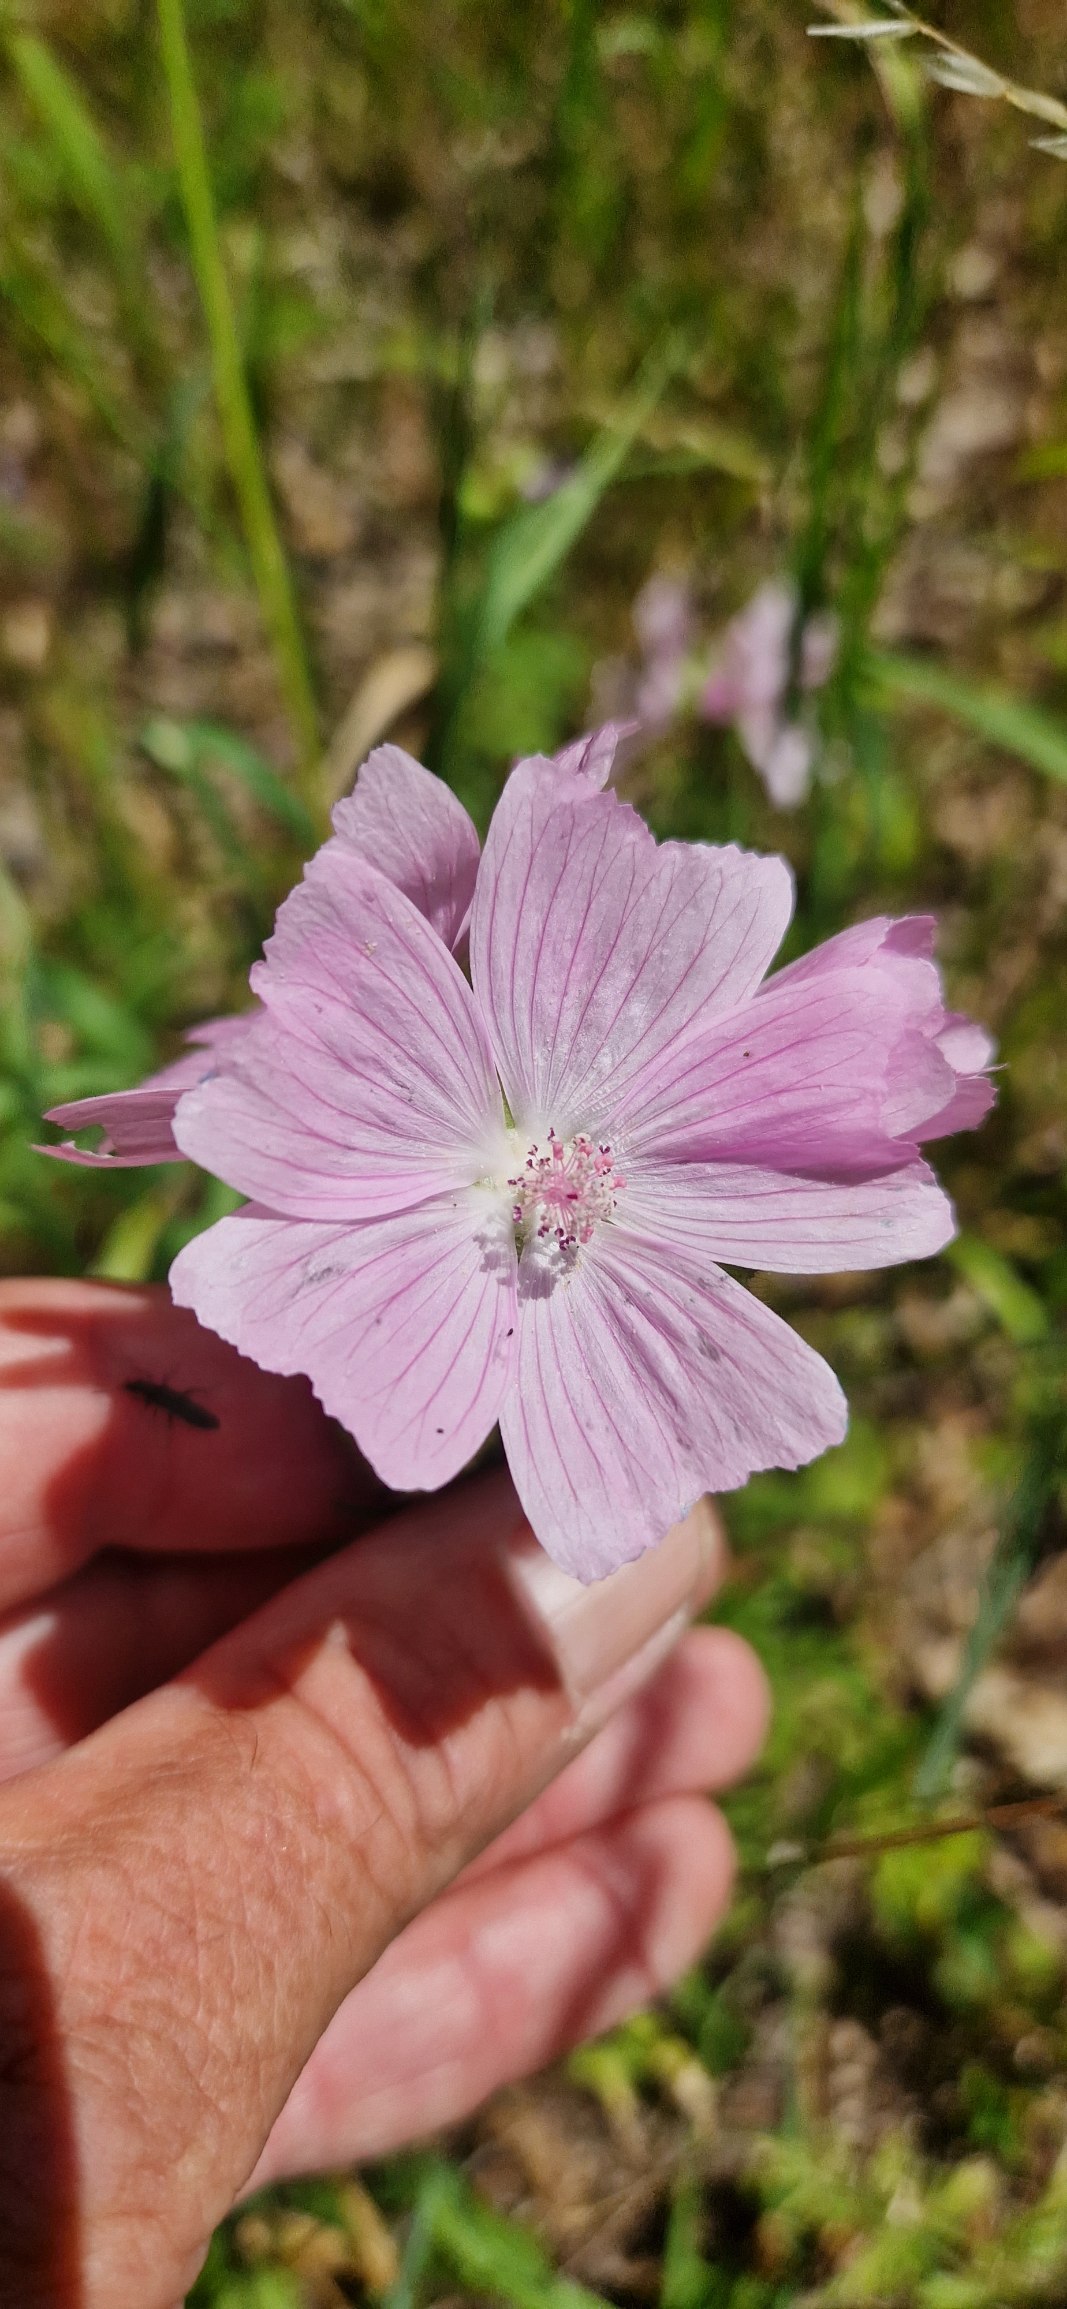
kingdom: Plantae
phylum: Tracheophyta
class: Magnoliopsida
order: Malvales
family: Malvaceae
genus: Malva
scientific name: Malva moschata
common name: Moskus-katost
